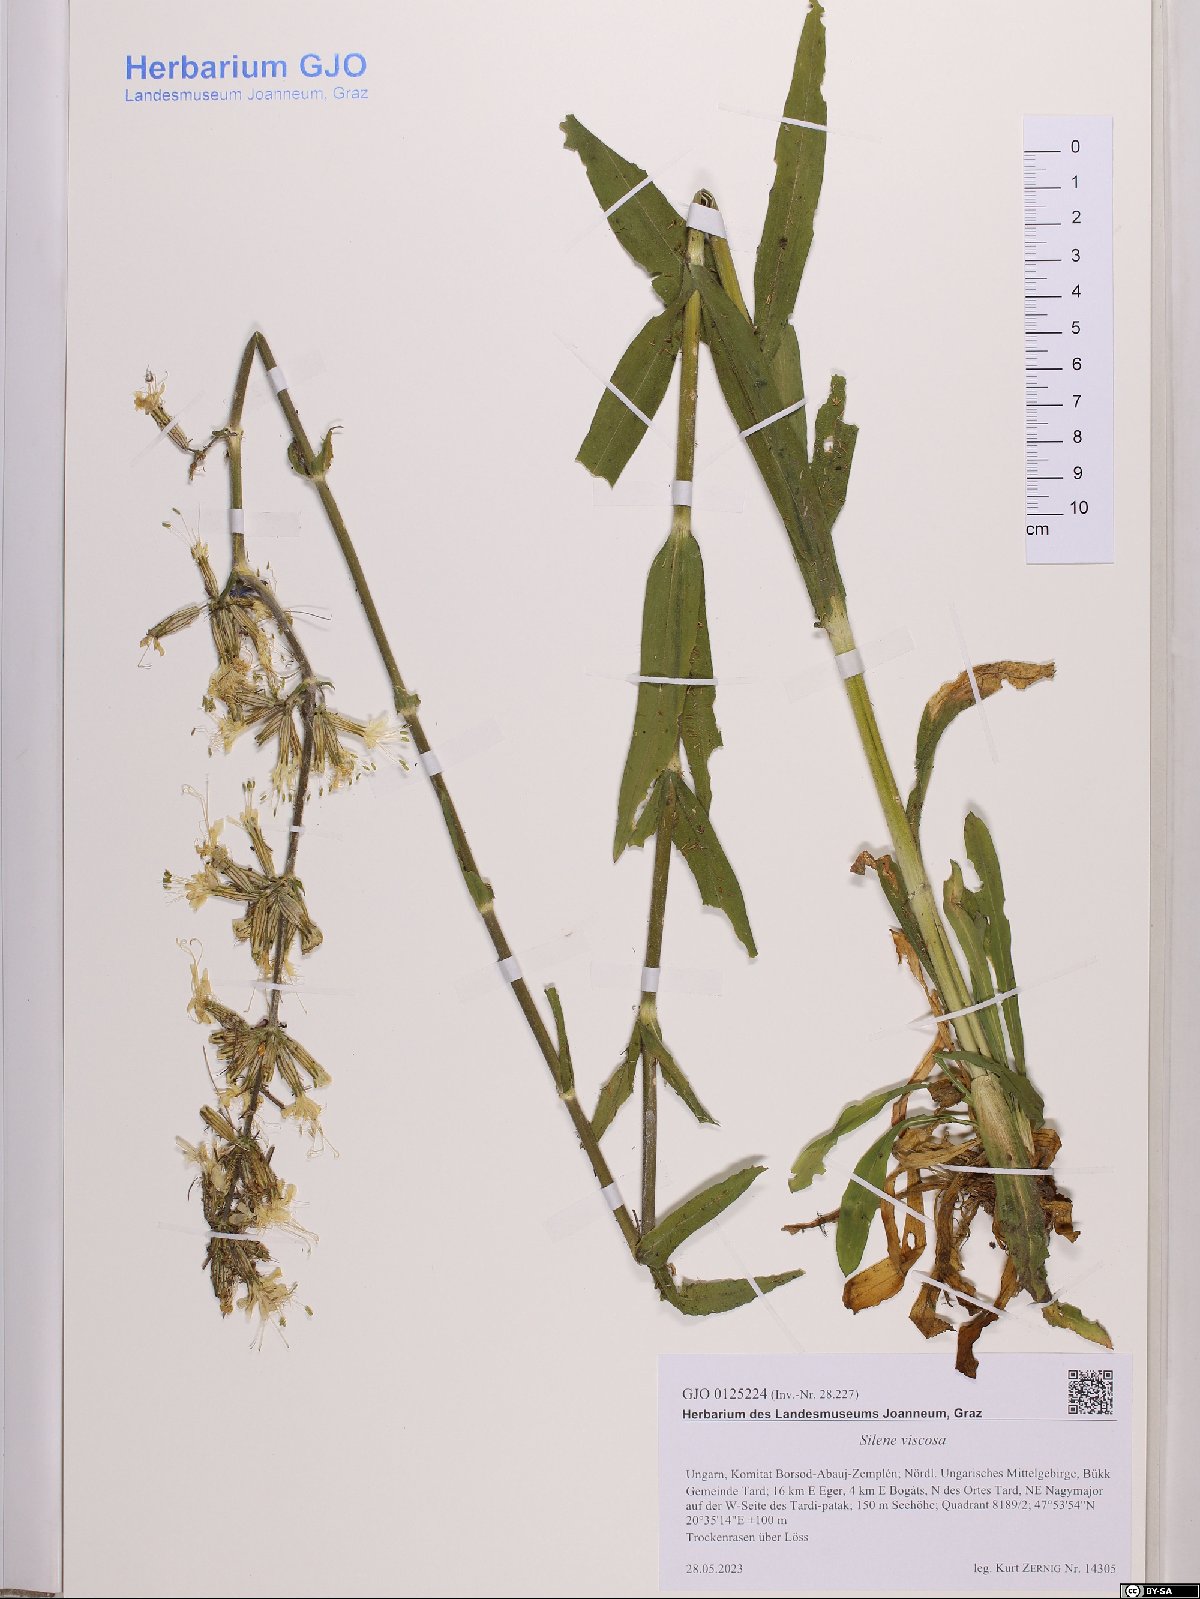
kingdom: Plantae
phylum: Tracheophyta
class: Magnoliopsida
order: Caryophyllales
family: Caryophyllaceae
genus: Silene
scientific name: Silene viscosa
